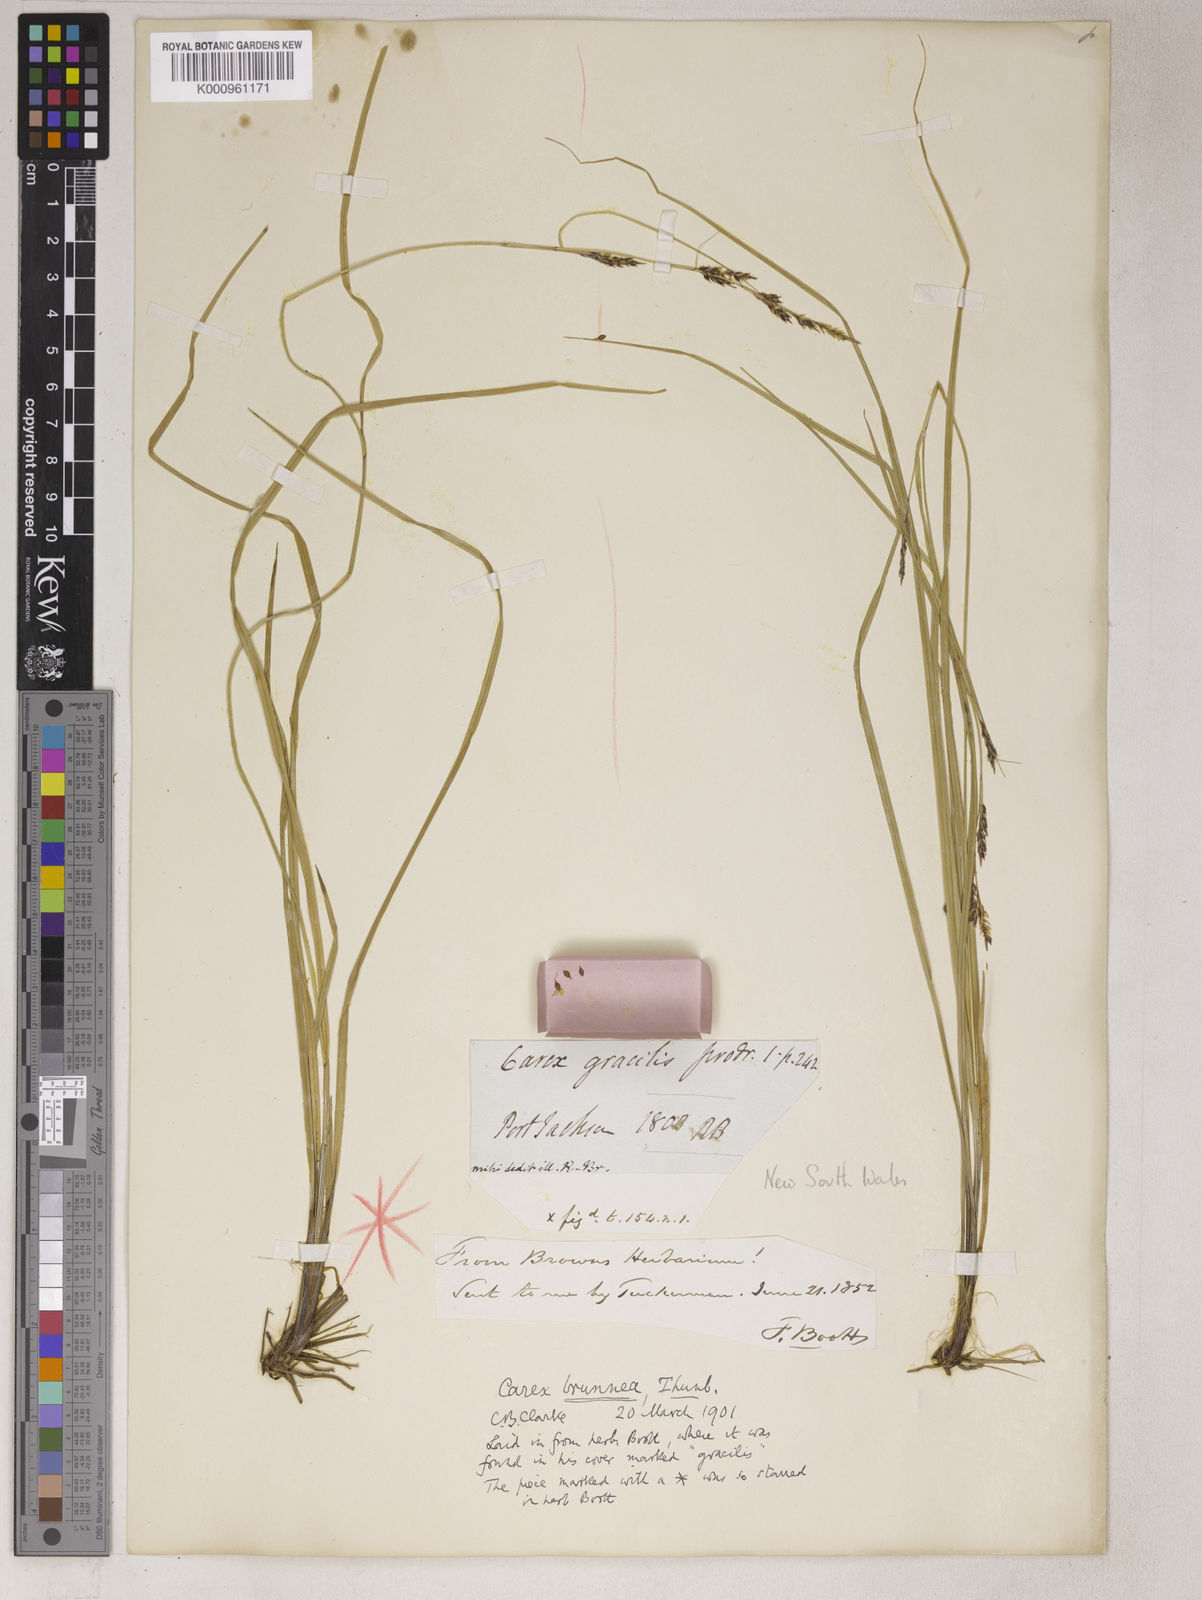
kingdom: Plantae
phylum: Tracheophyta
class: Liliopsida
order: Poales
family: Cyperaceae
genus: Carex
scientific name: Carex brunnea
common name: Greater brown sedge
